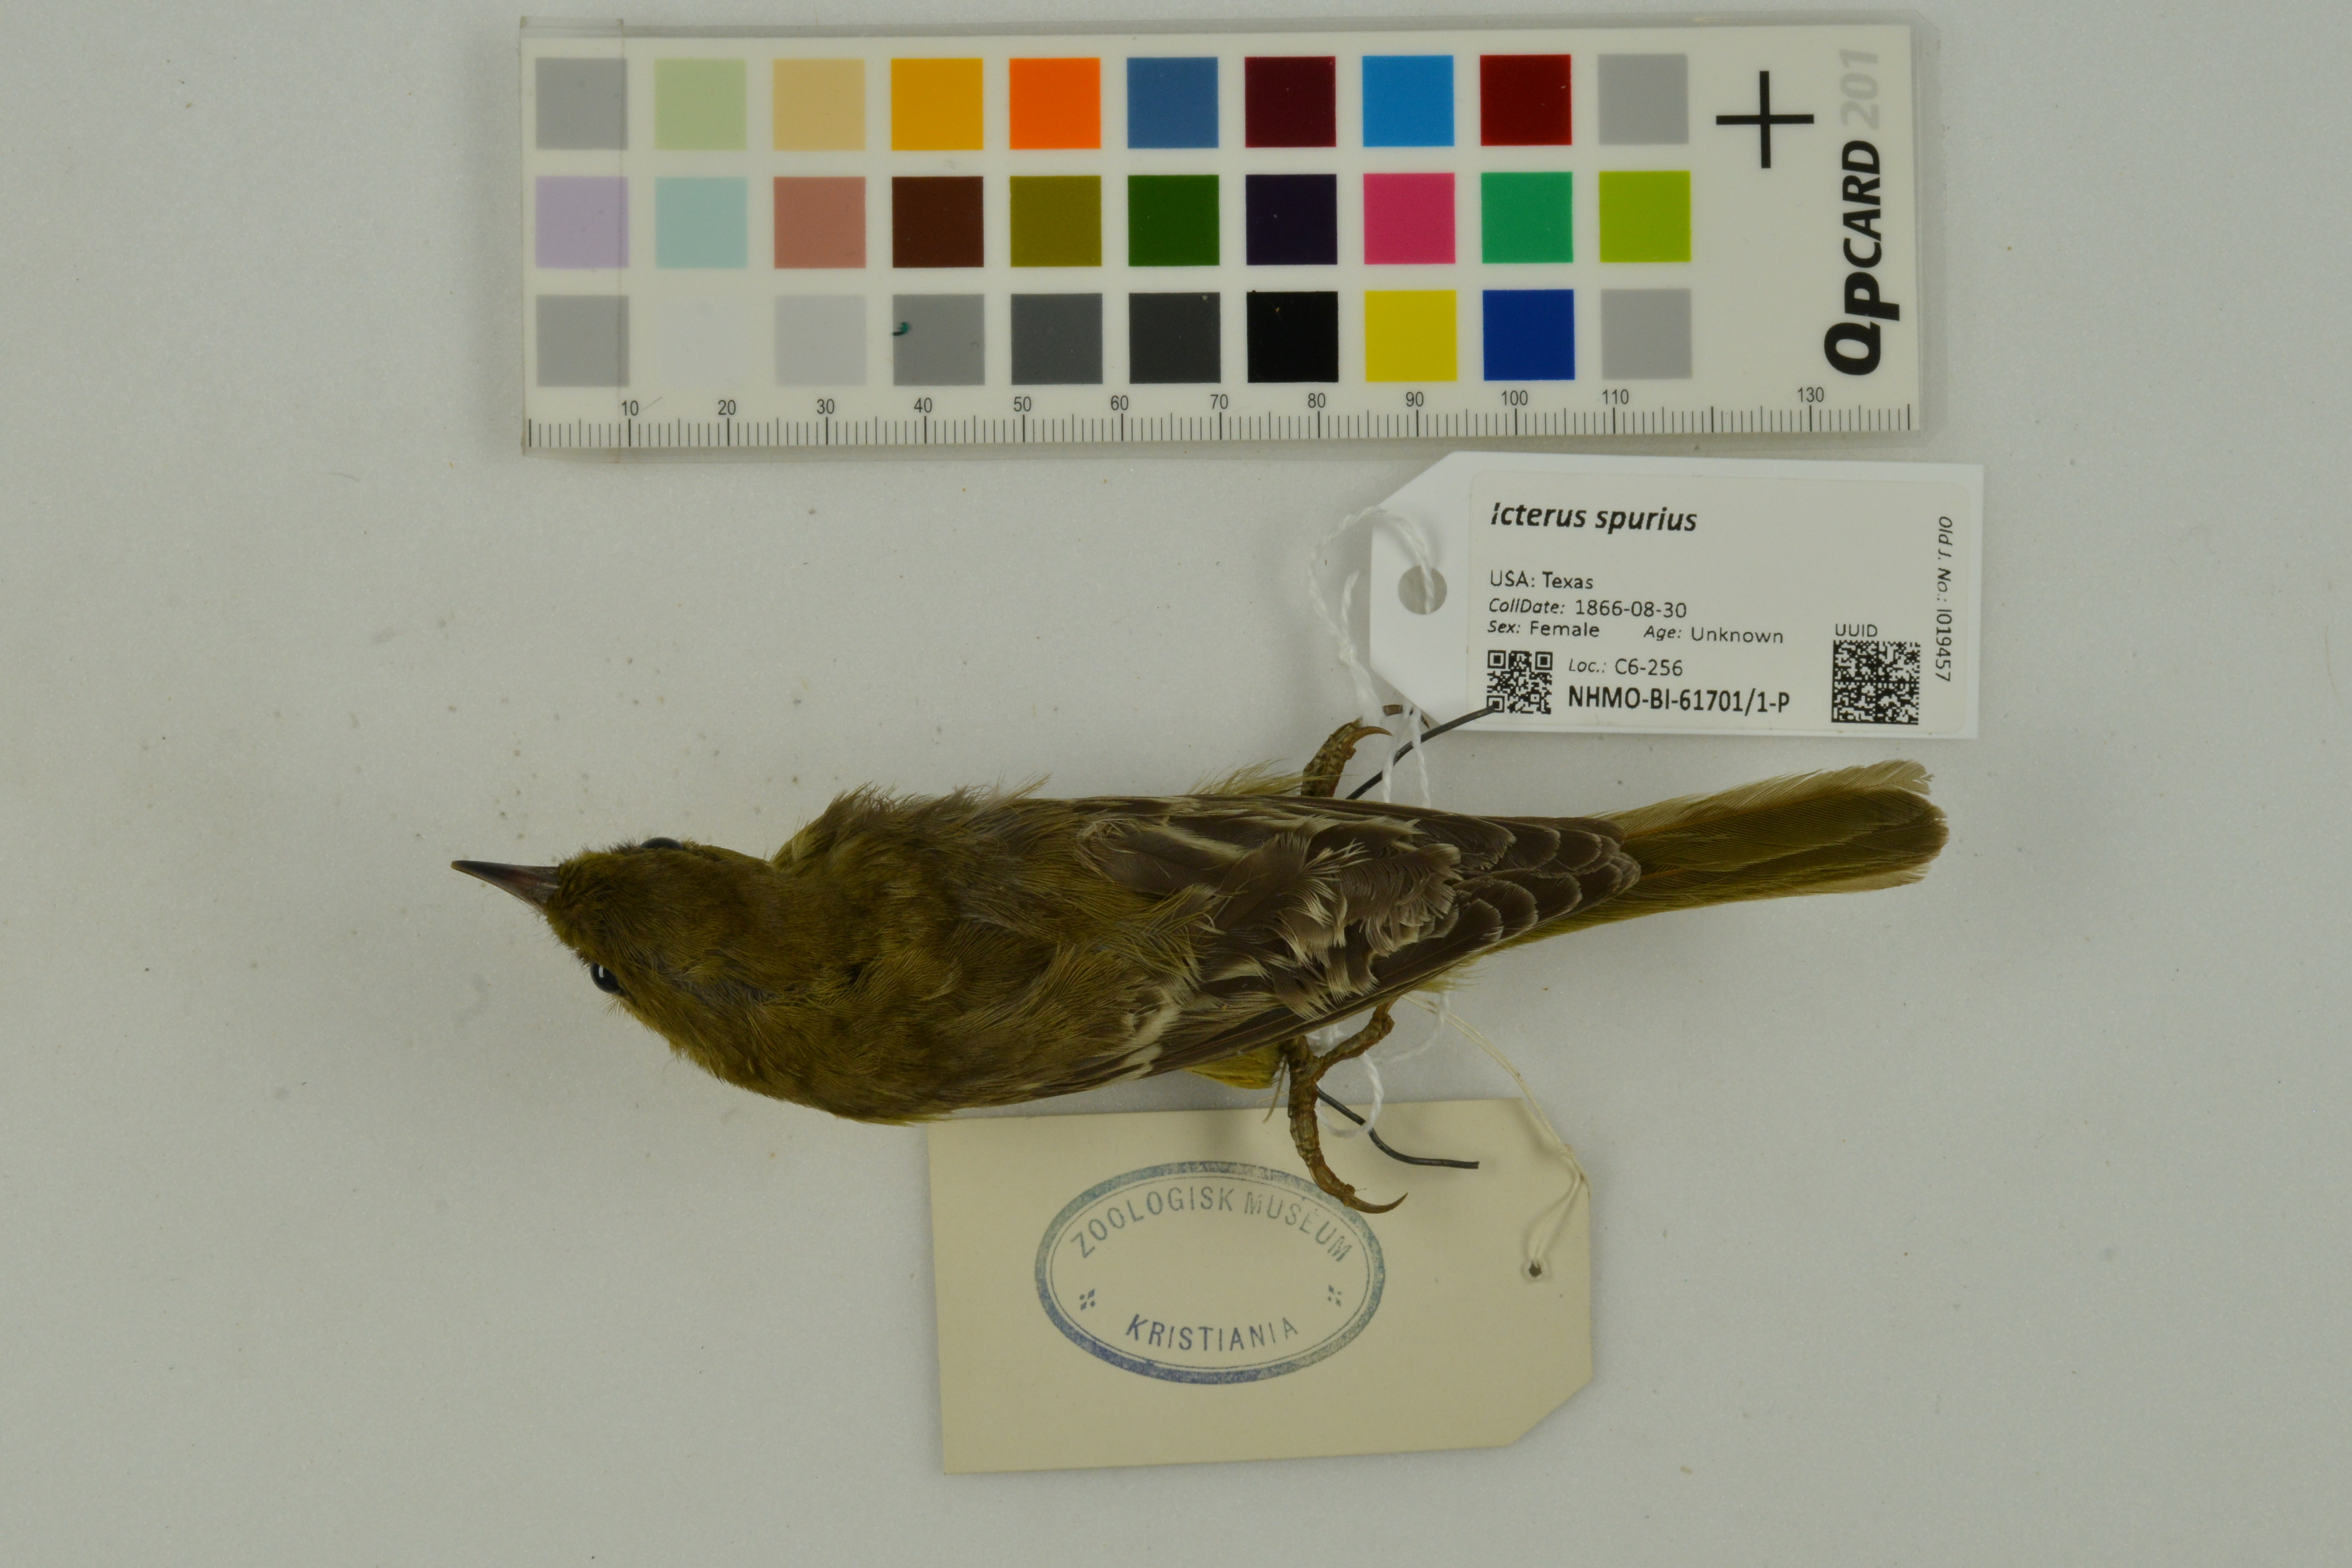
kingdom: Animalia
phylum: Chordata
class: Aves
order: Passeriformes
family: Icteridae
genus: Icterus
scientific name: Icterus spurius
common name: Orchard oriole
